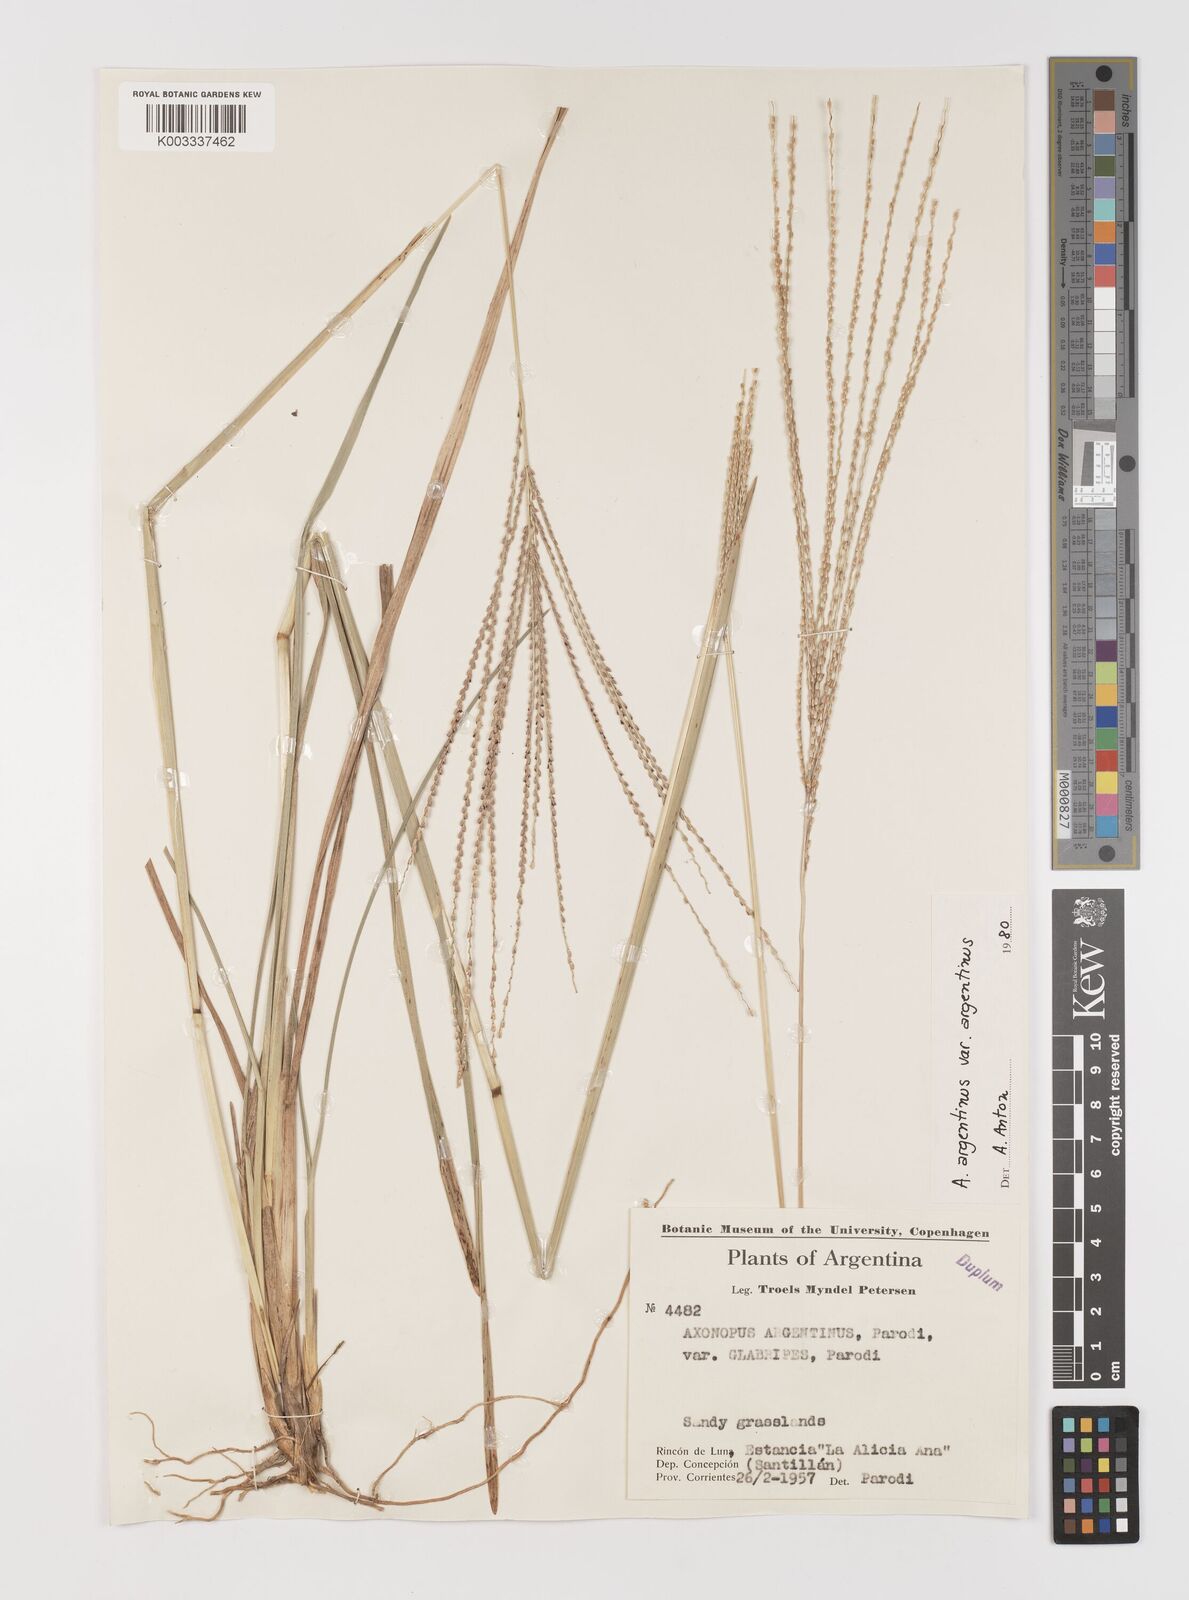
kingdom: Plantae
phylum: Tracheophyta
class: Liliopsida
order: Poales
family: Poaceae
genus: Axonopus
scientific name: Axonopus argentinus
